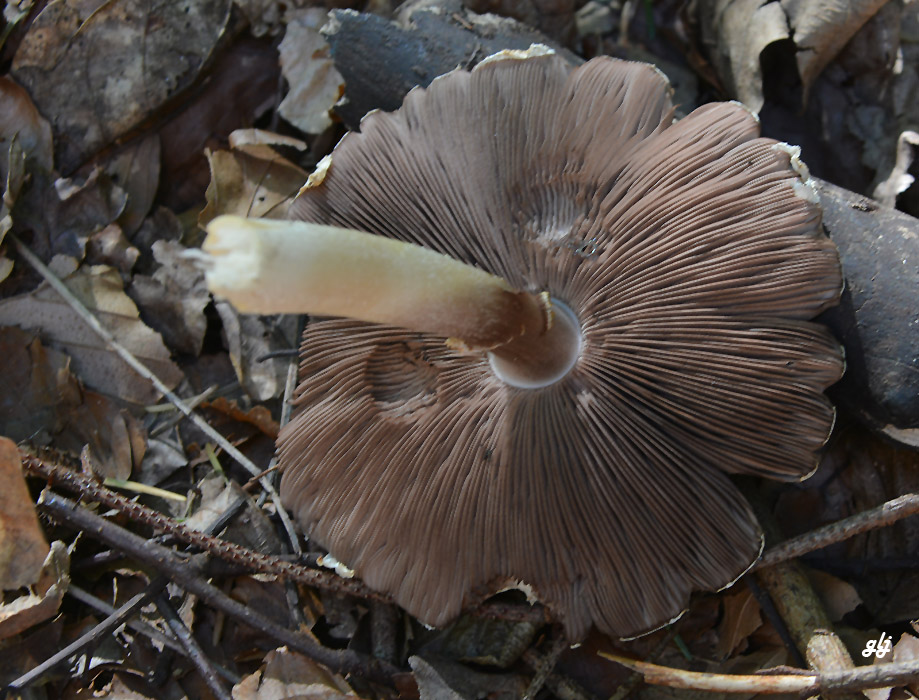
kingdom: Fungi
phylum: Basidiomycota
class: Agaricomycetes
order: Agaricales
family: Psathyrellaceae
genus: Candolleomyces
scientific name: Candolleomyces
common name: mørkhat
